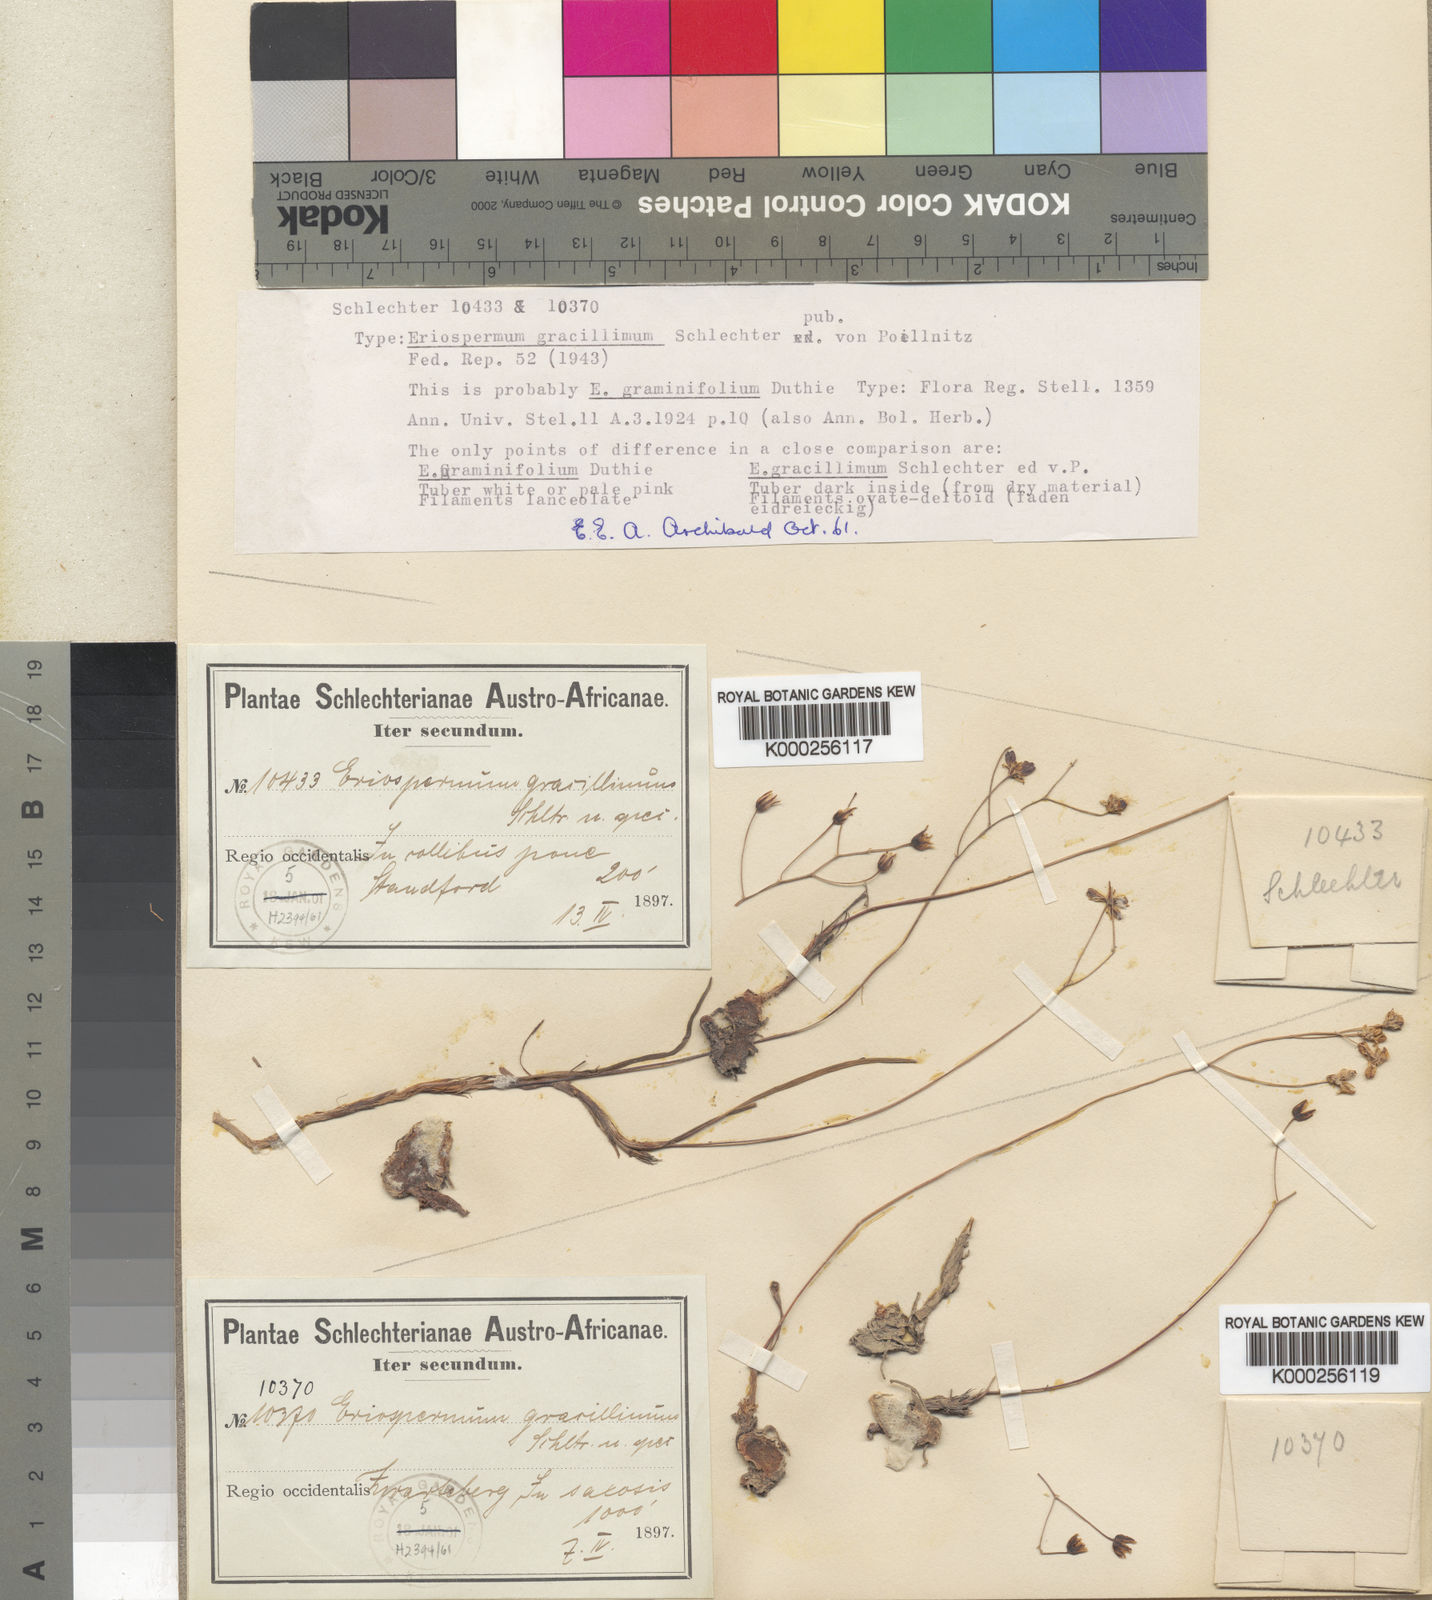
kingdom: Plantae
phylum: Tracheophyta
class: Liliopsida
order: Asparagales
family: Asparagaceae
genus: Eriospermum
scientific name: Eriospermum graminifolium
